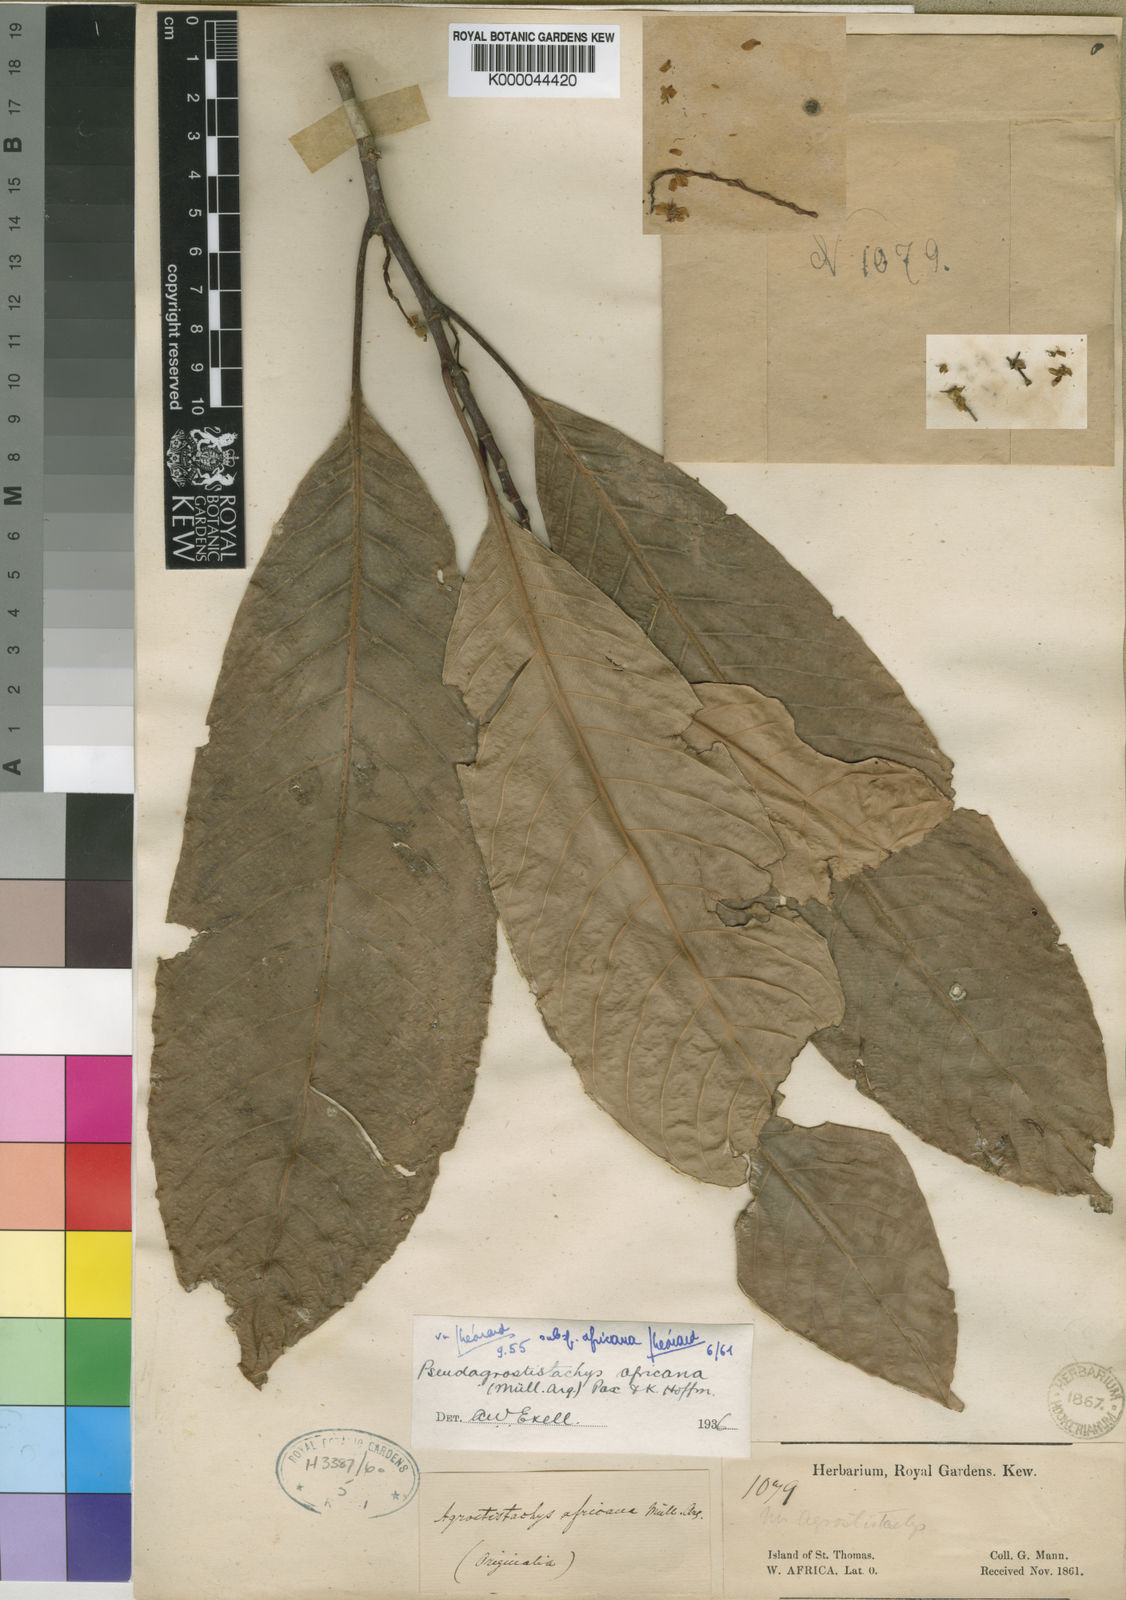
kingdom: Plantae
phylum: Tracheophyta
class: Magnoliopsida
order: Malpighiales
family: Euphorbiaceae
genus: Pseudagrostistachys
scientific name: Pseudagrostistachys africana
